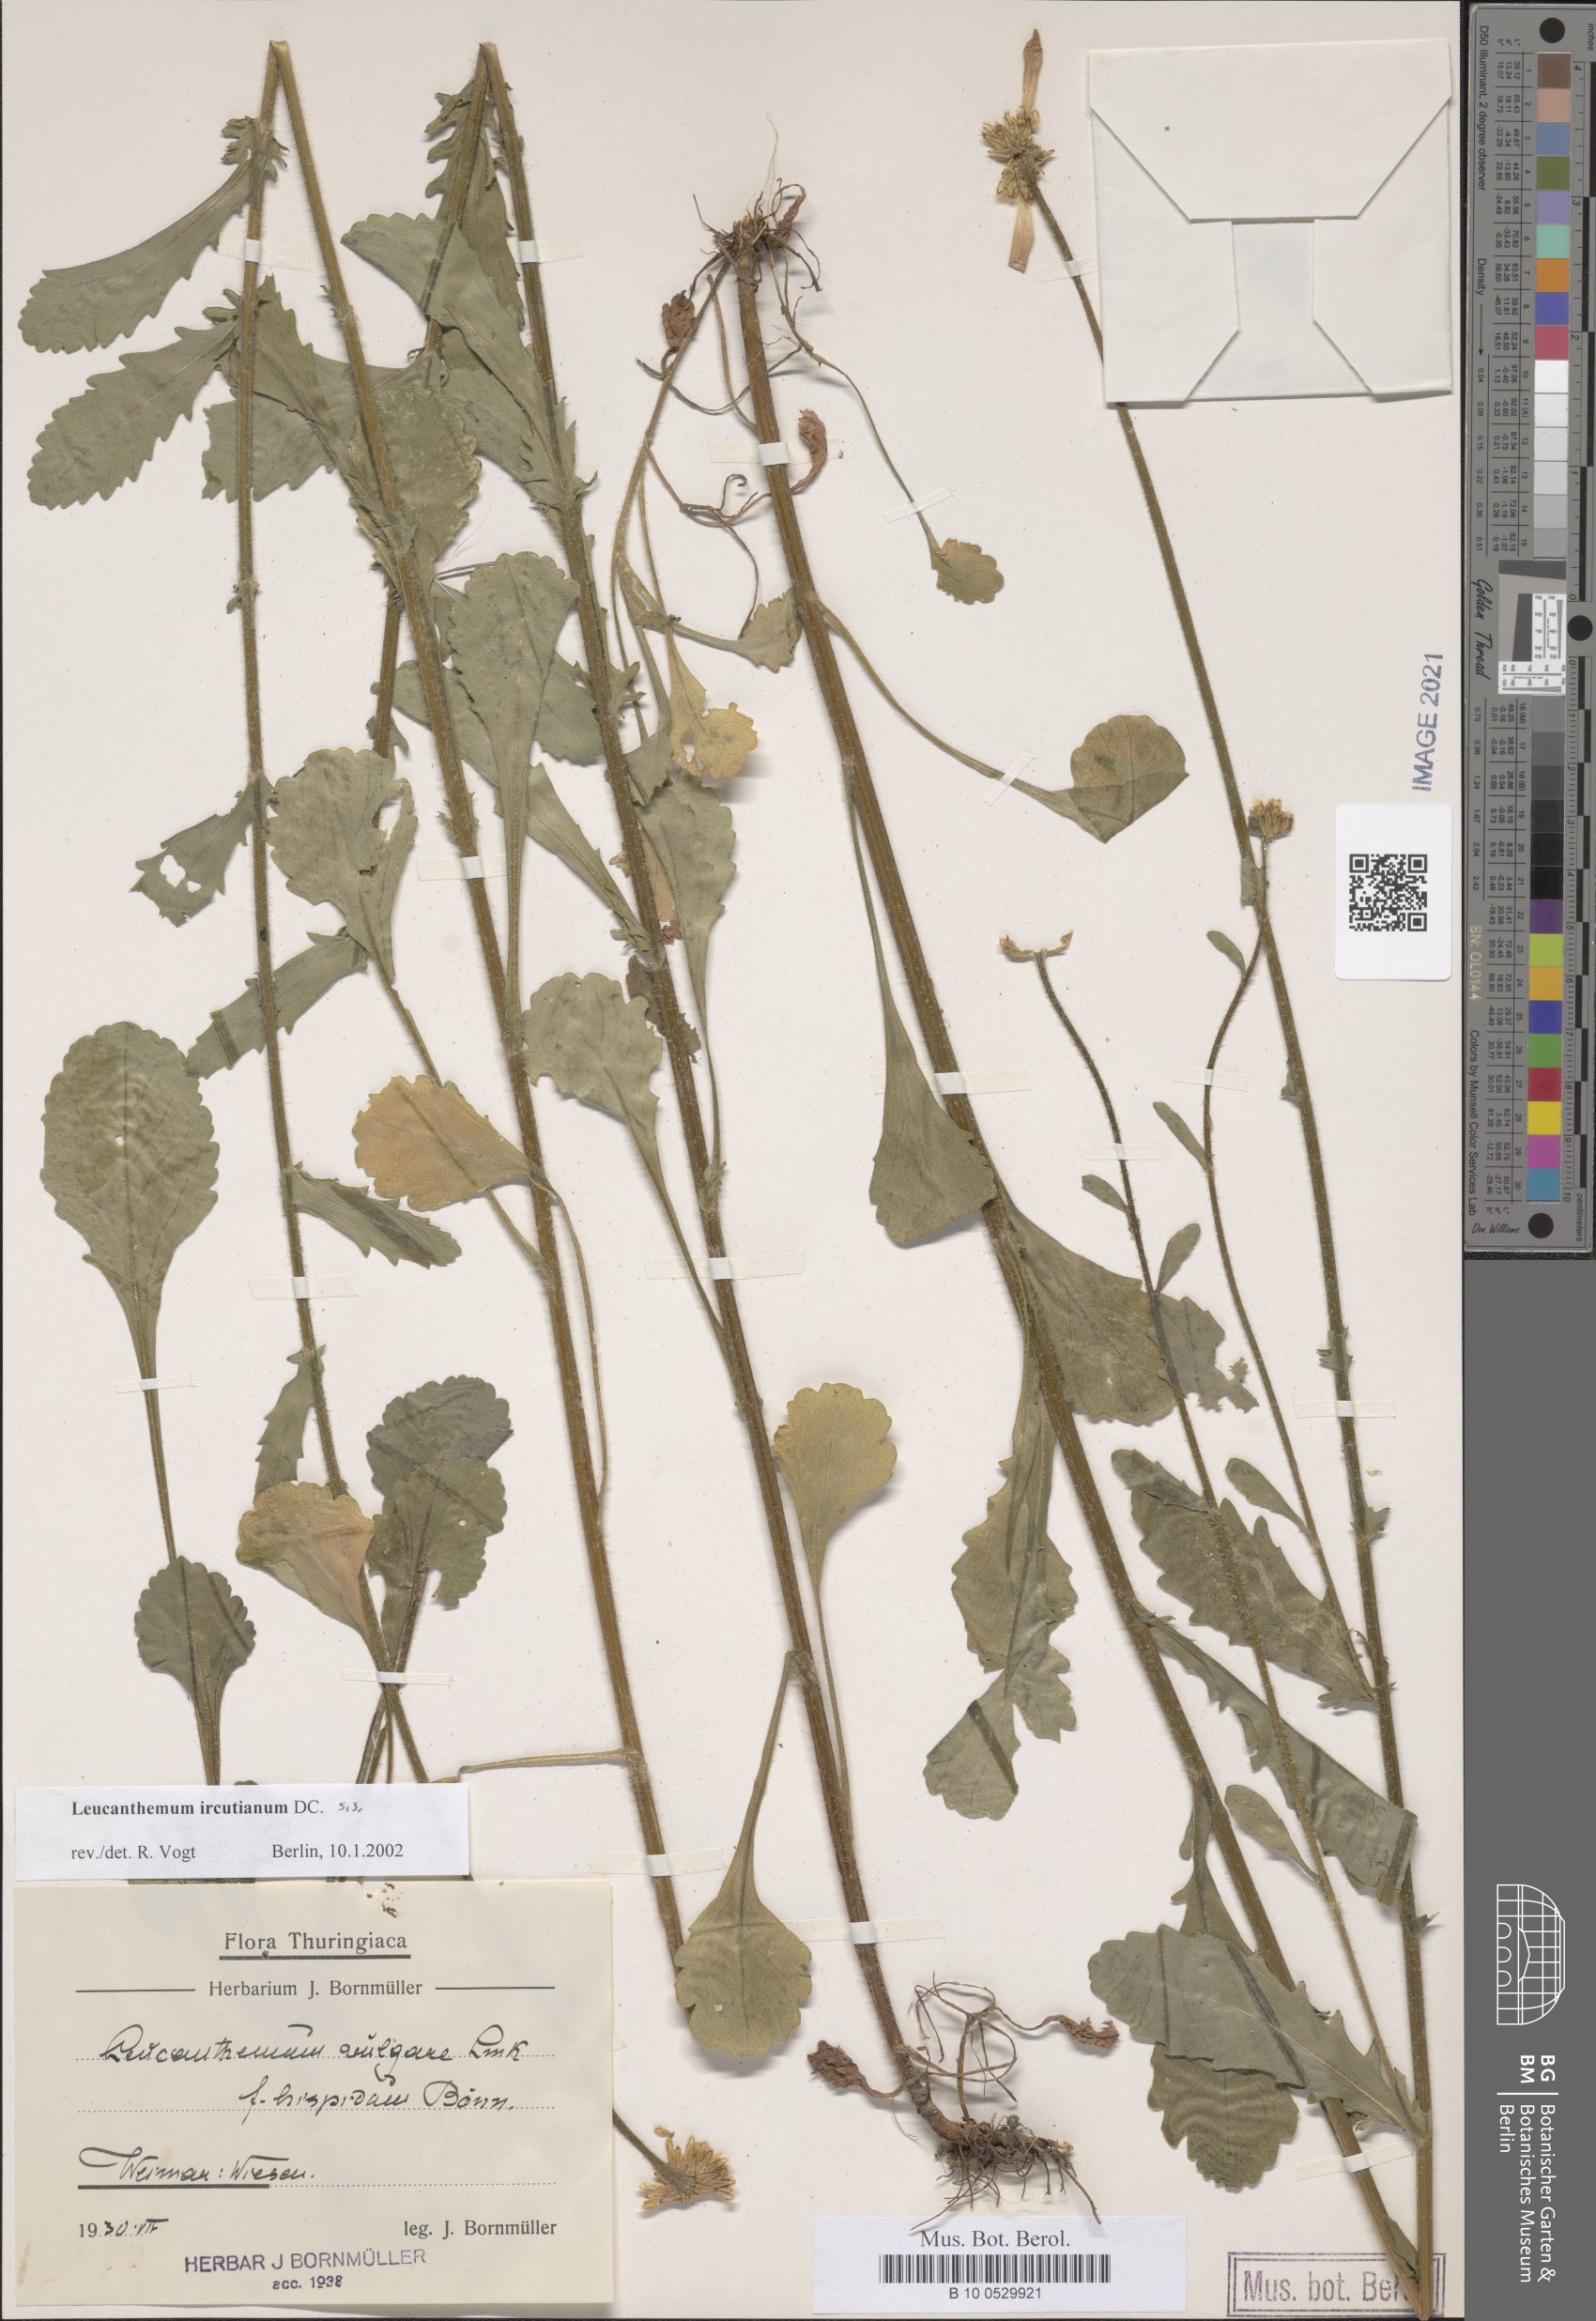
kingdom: Plantae
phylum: Tracheophyta
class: Magnoliopsida
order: Asterales
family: Asteraceae
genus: Leucanthemum
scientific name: Leucanthemum ircutianum
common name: Daisy
